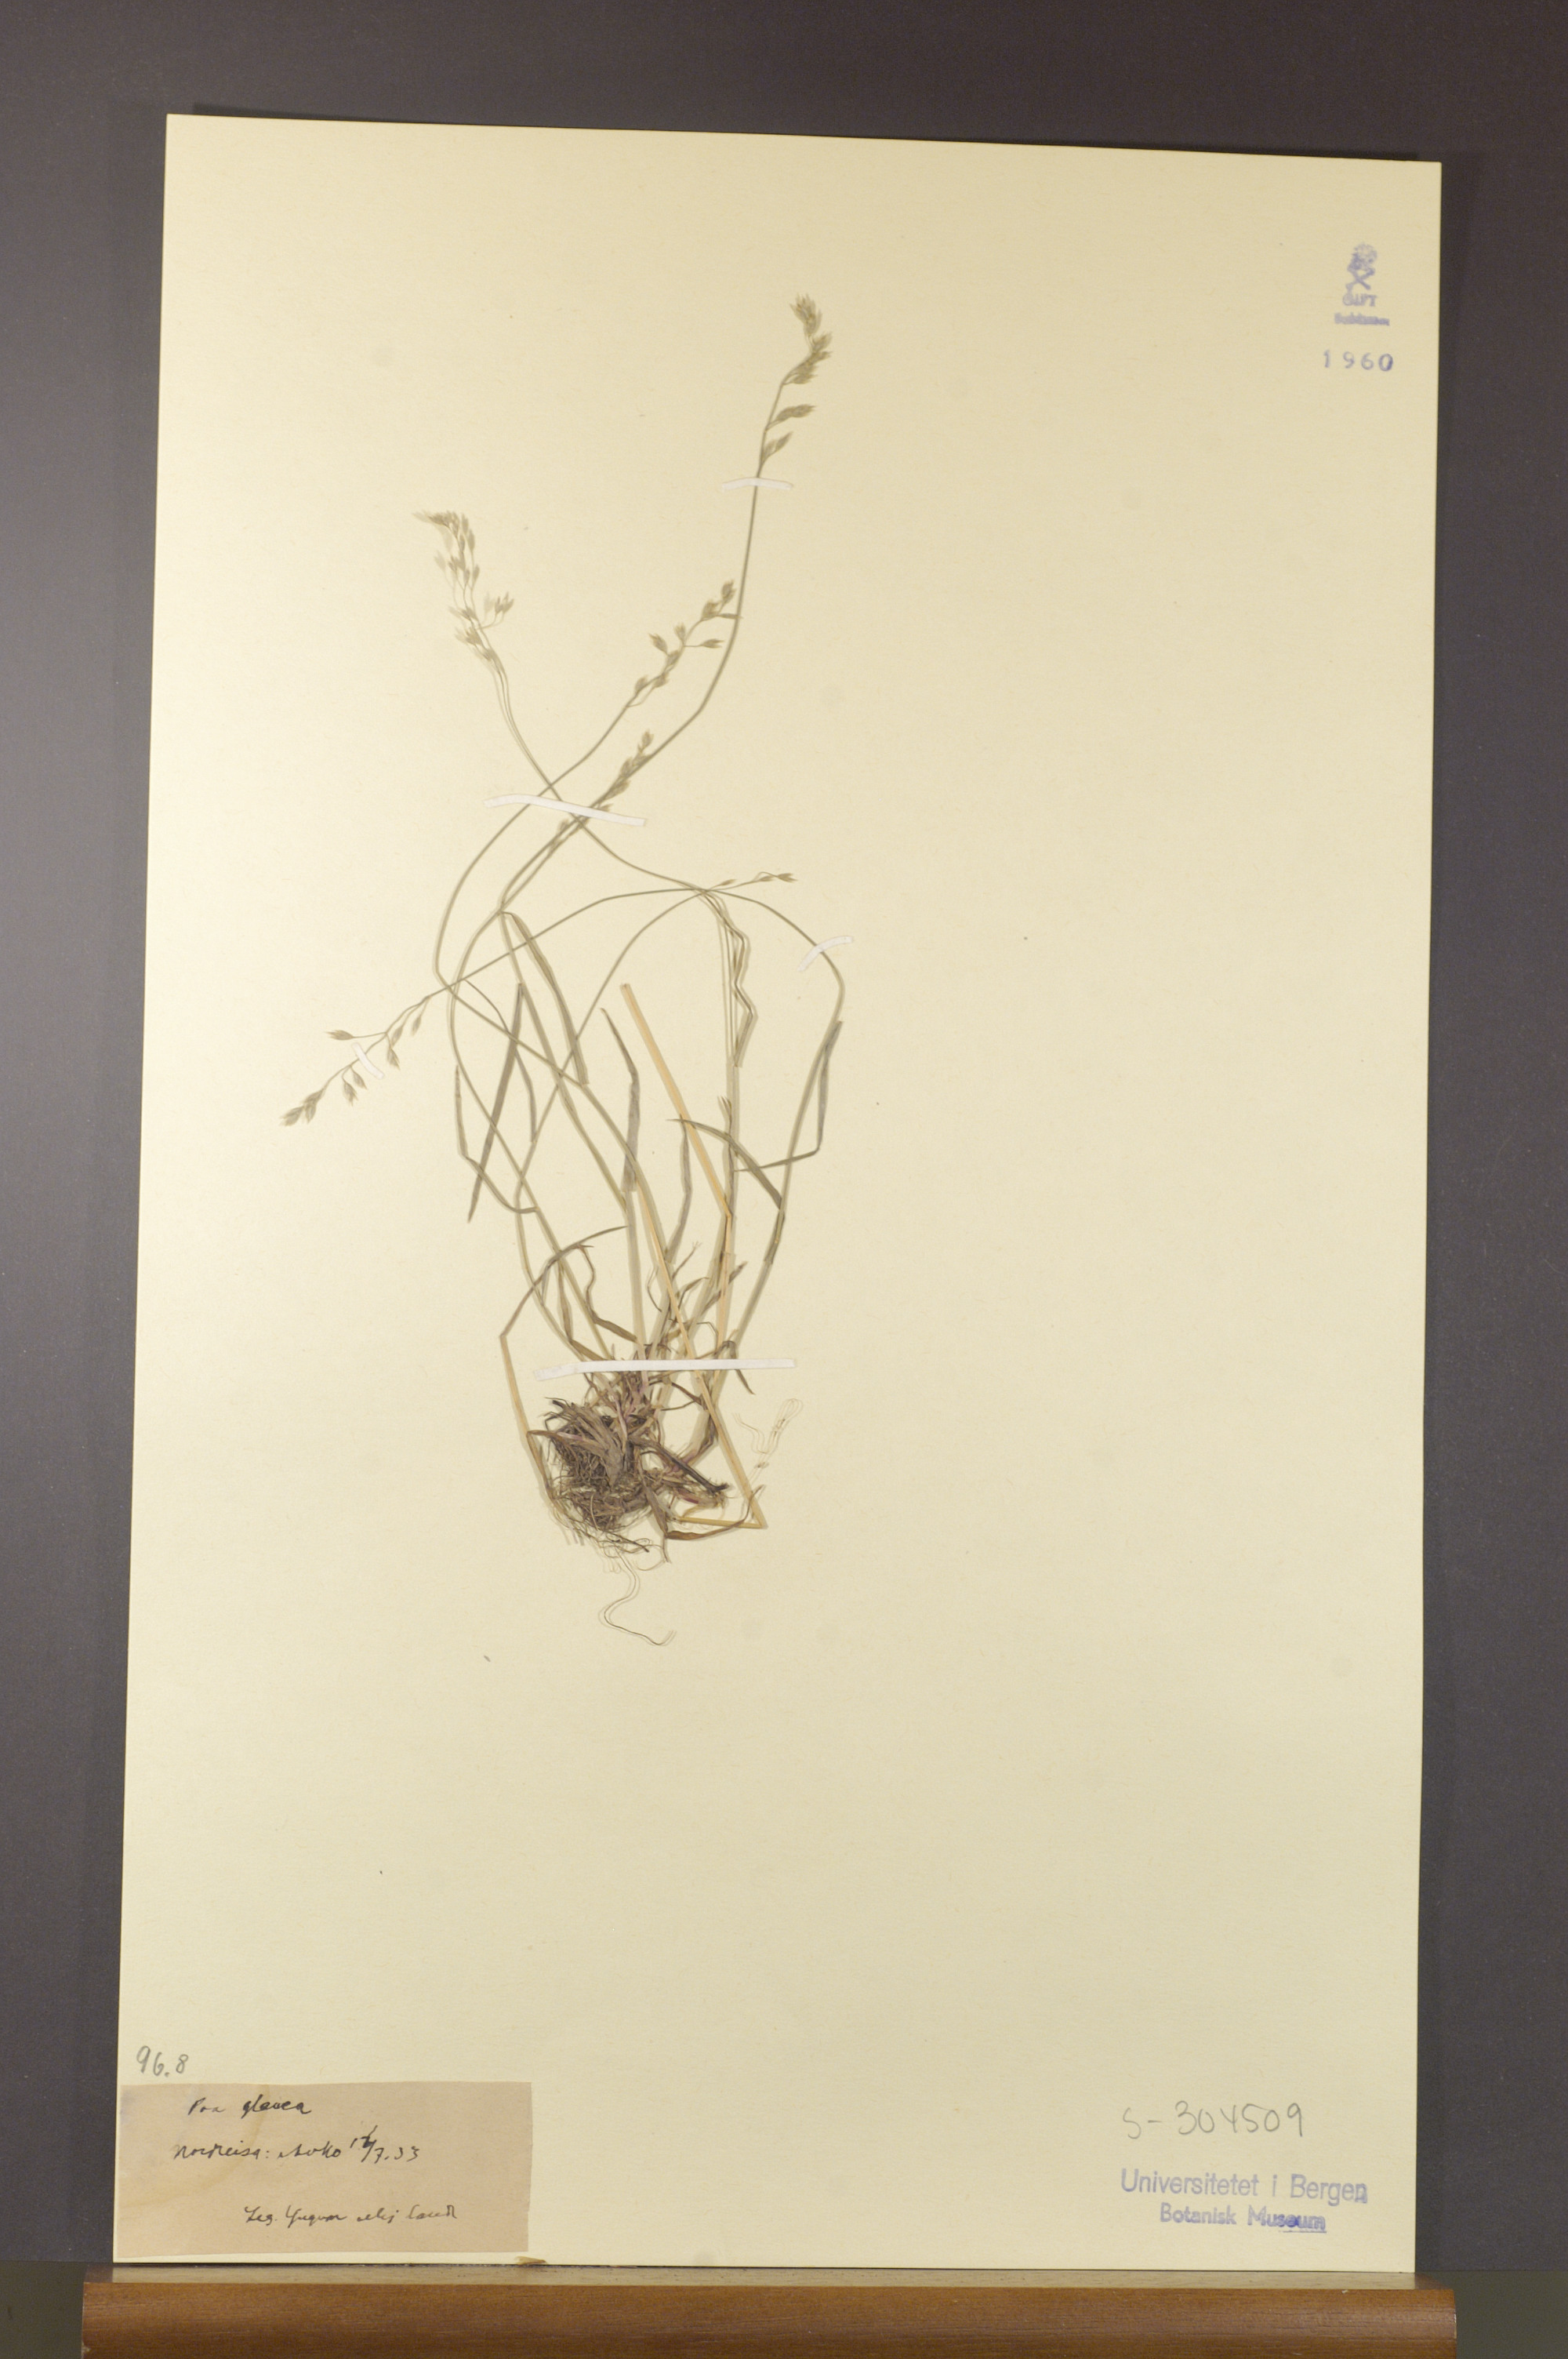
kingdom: Plantae
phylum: Tracheophyta
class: Liliopsida
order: Poales
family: Poaceae
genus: Poa
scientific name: Poa glauca
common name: Glaucous bluegrass
